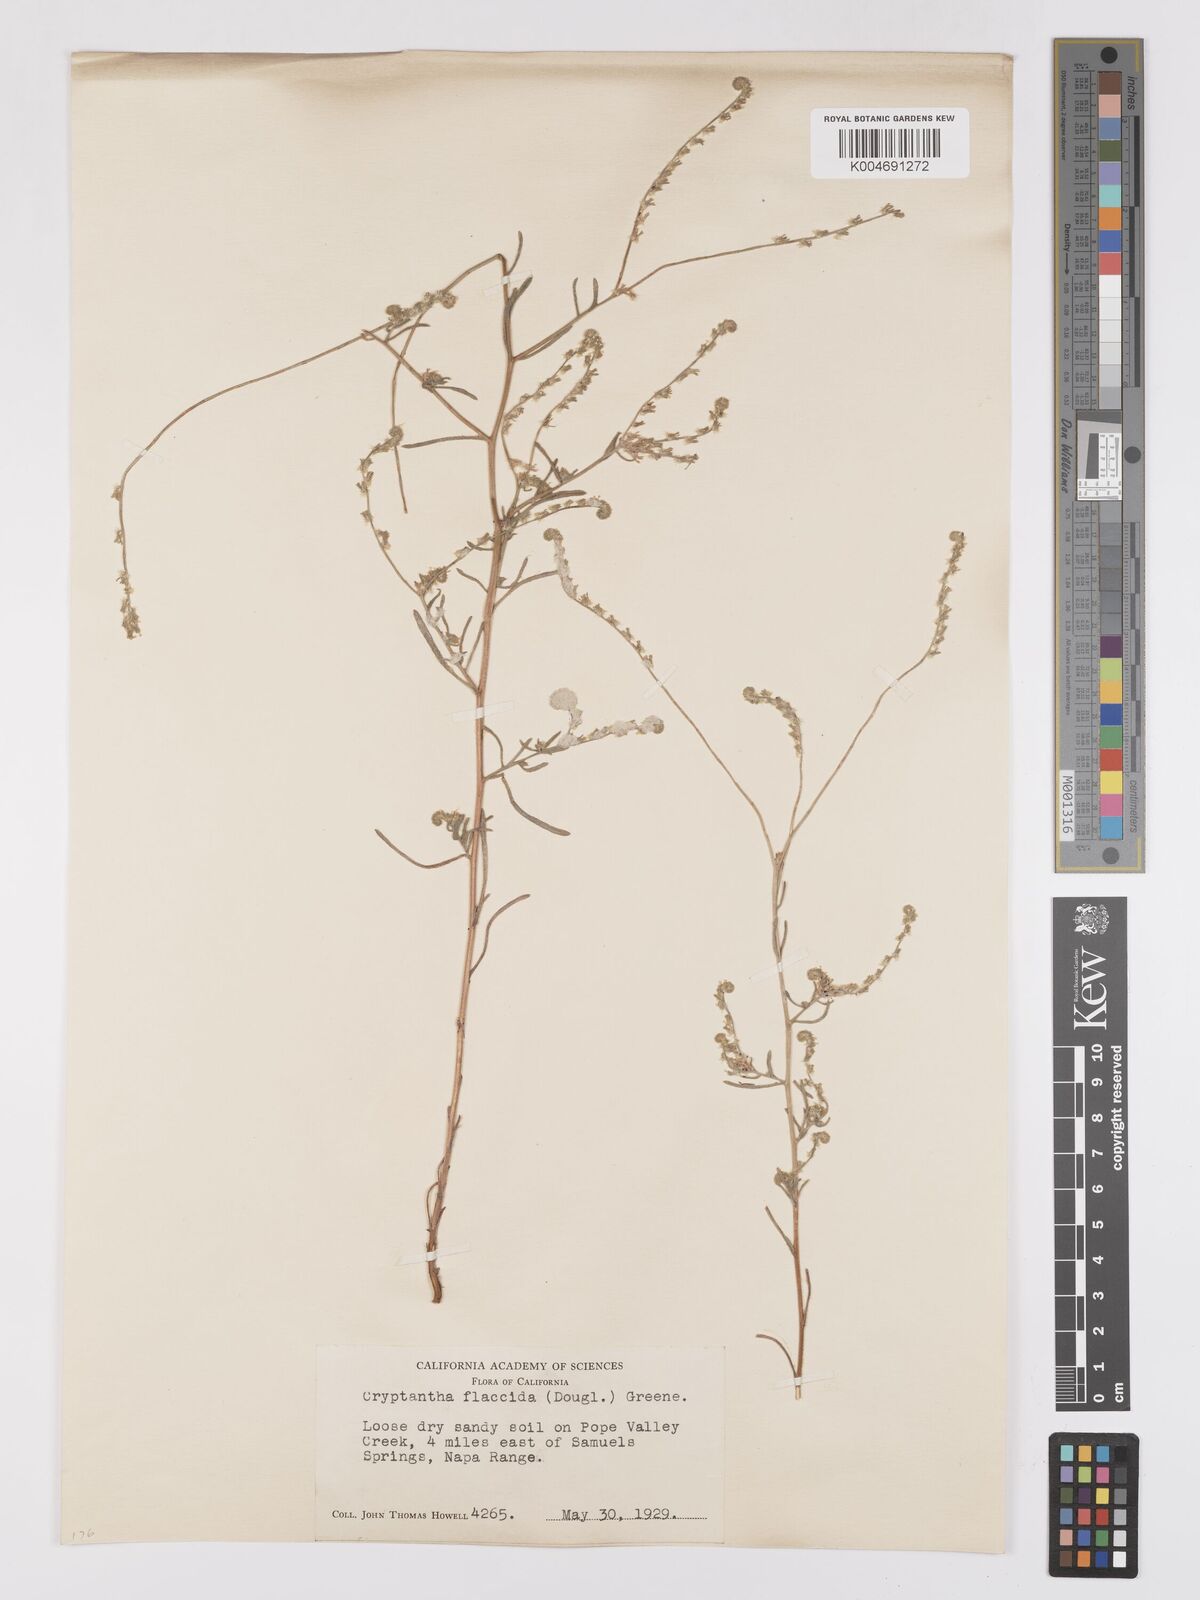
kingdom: Plantae
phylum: Tracheophyta
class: Magnoliopsida
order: Boraginales
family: Boraginaceae
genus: Cryptantha
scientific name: Cryptantha flaccida
